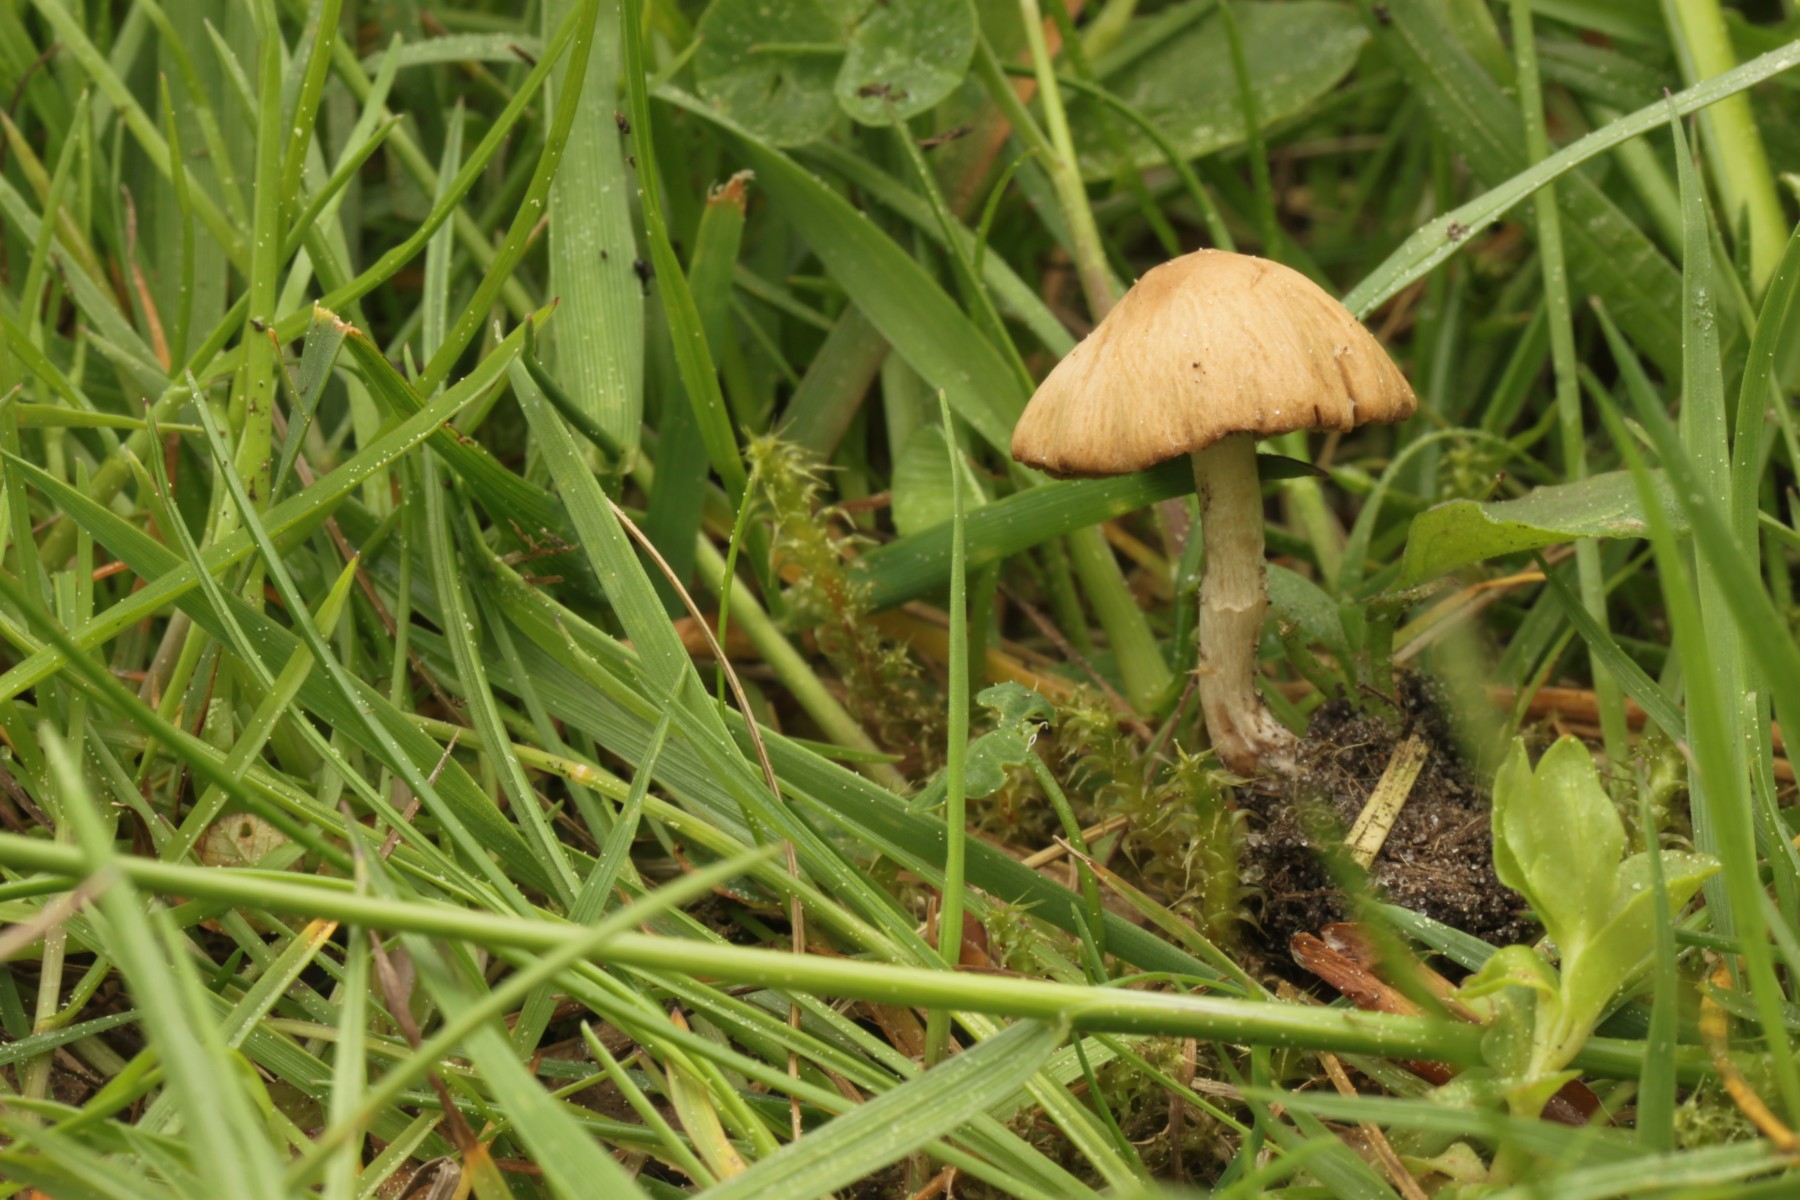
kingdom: Fungi
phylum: Basidiomycota
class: Agaricomycetes
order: Agaricales
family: Psathyrellaceae
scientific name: Psathyrellaceae
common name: mørkhatfamilien
